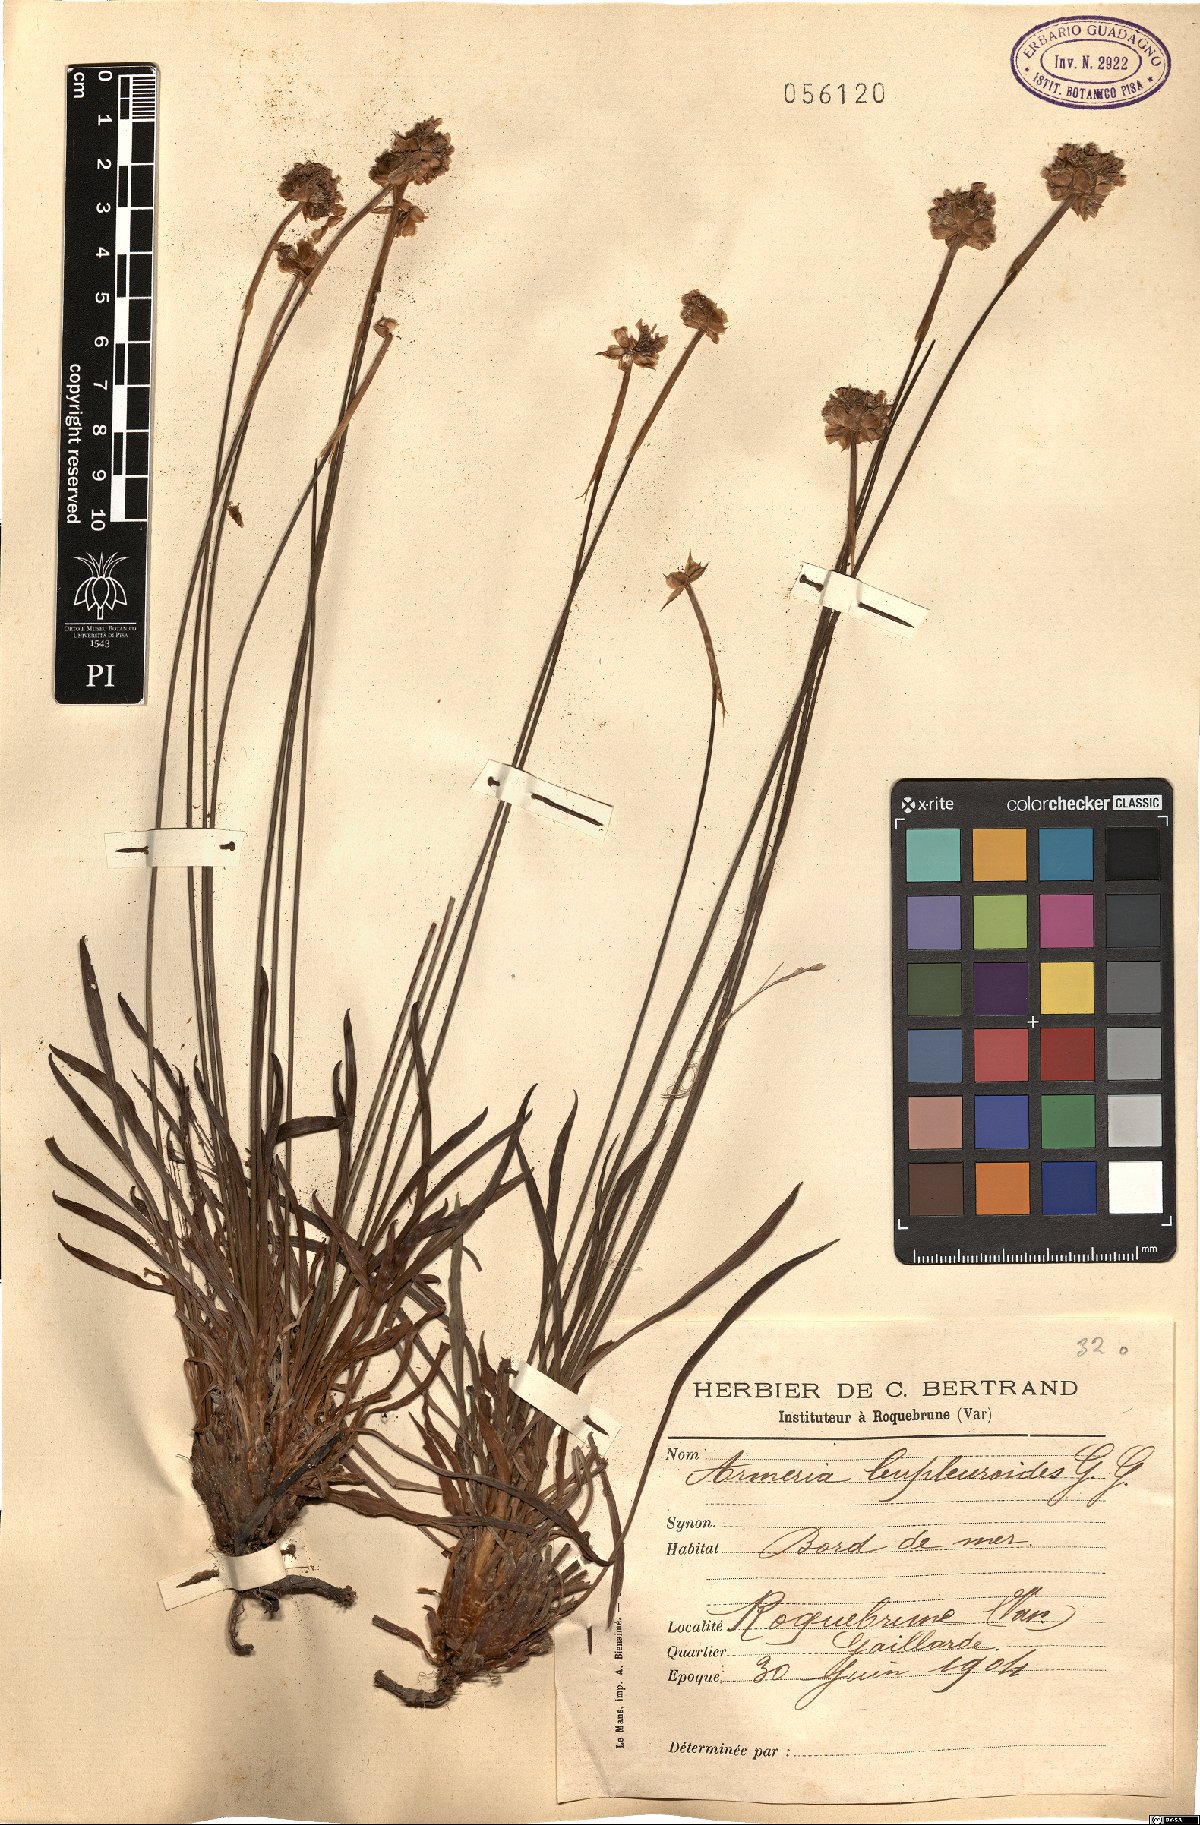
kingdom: Plantae
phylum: Tracheophyta
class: Magnoliopsida
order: Caryophyllales
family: Plumbaginaceae
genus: Armeria
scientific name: Armeria arenaria
